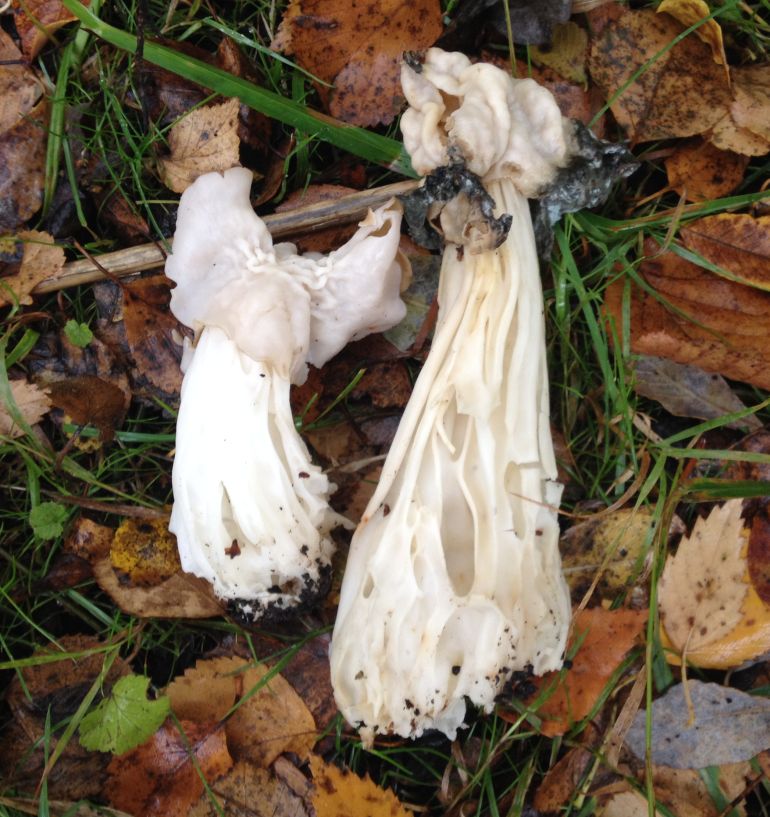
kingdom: Fungi
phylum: Ascomycota
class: Pezizomycetes
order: Pezizales
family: Helvellaceae
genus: Helvella
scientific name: Helvella crispa
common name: kruset foldhat
